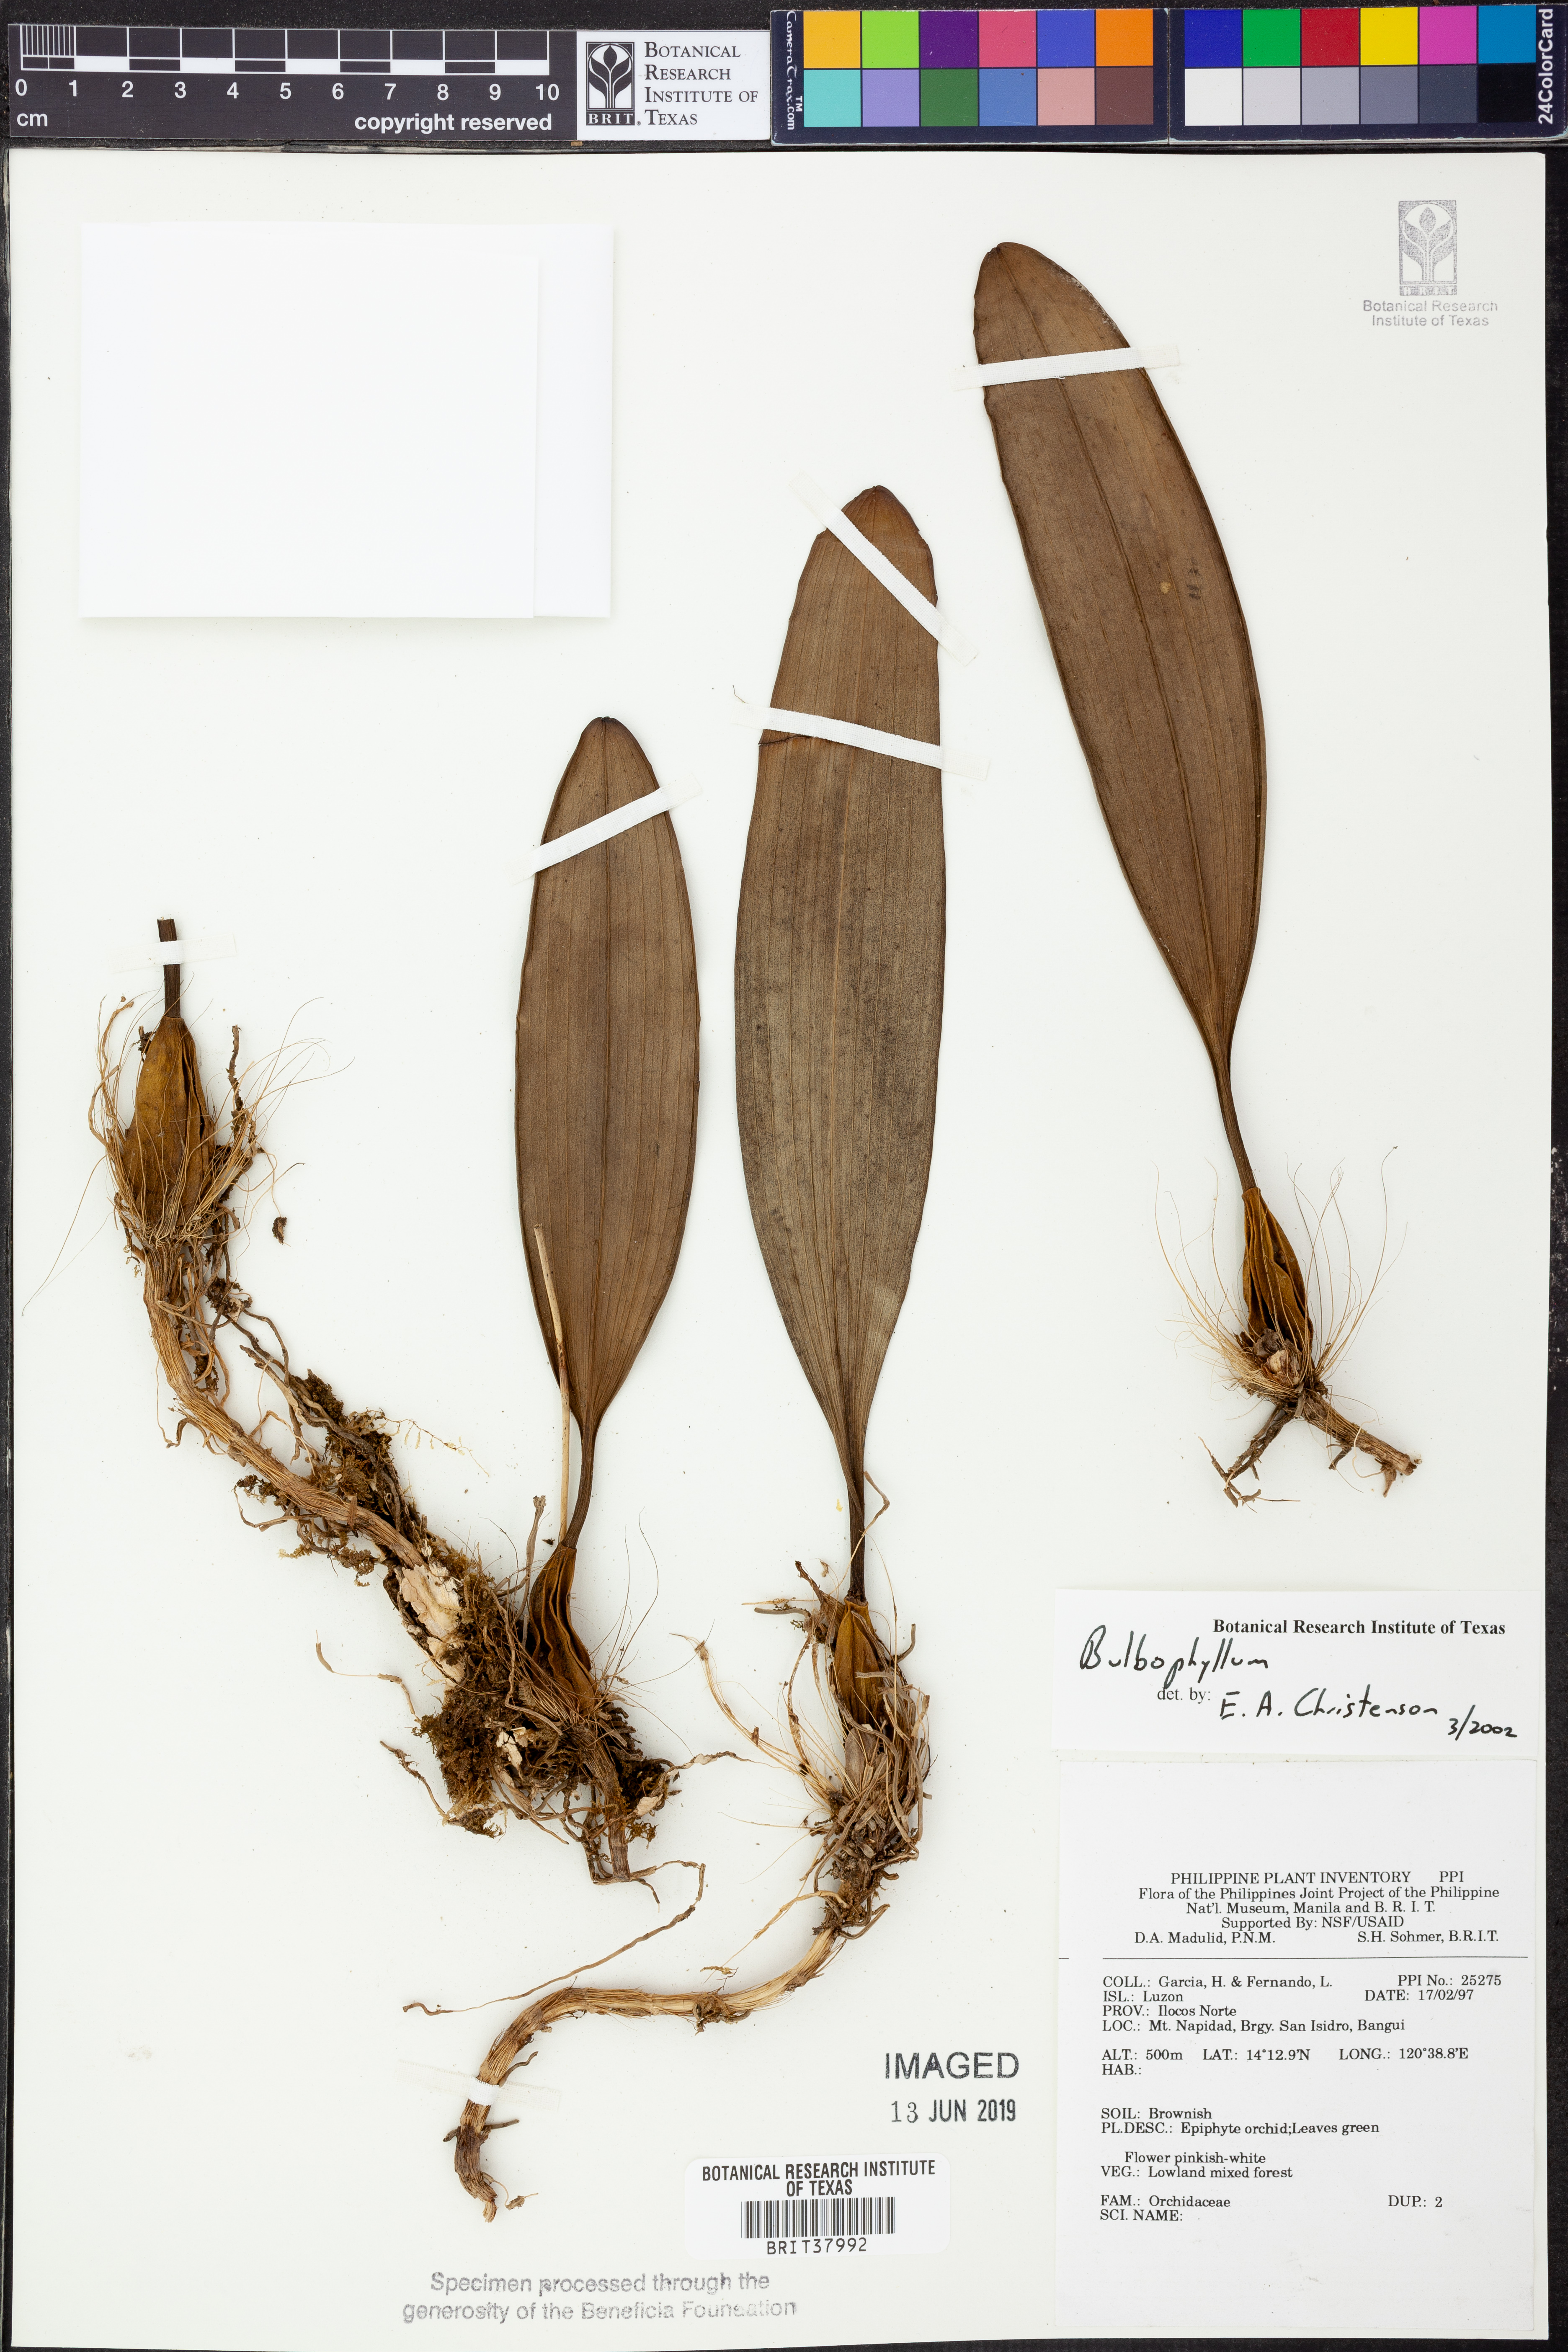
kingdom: Plantae
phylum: Tracheophyta
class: Liliopsida
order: Asparagales
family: Orchidaceae
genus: Bulbophyllum
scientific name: Bulbophyllum
